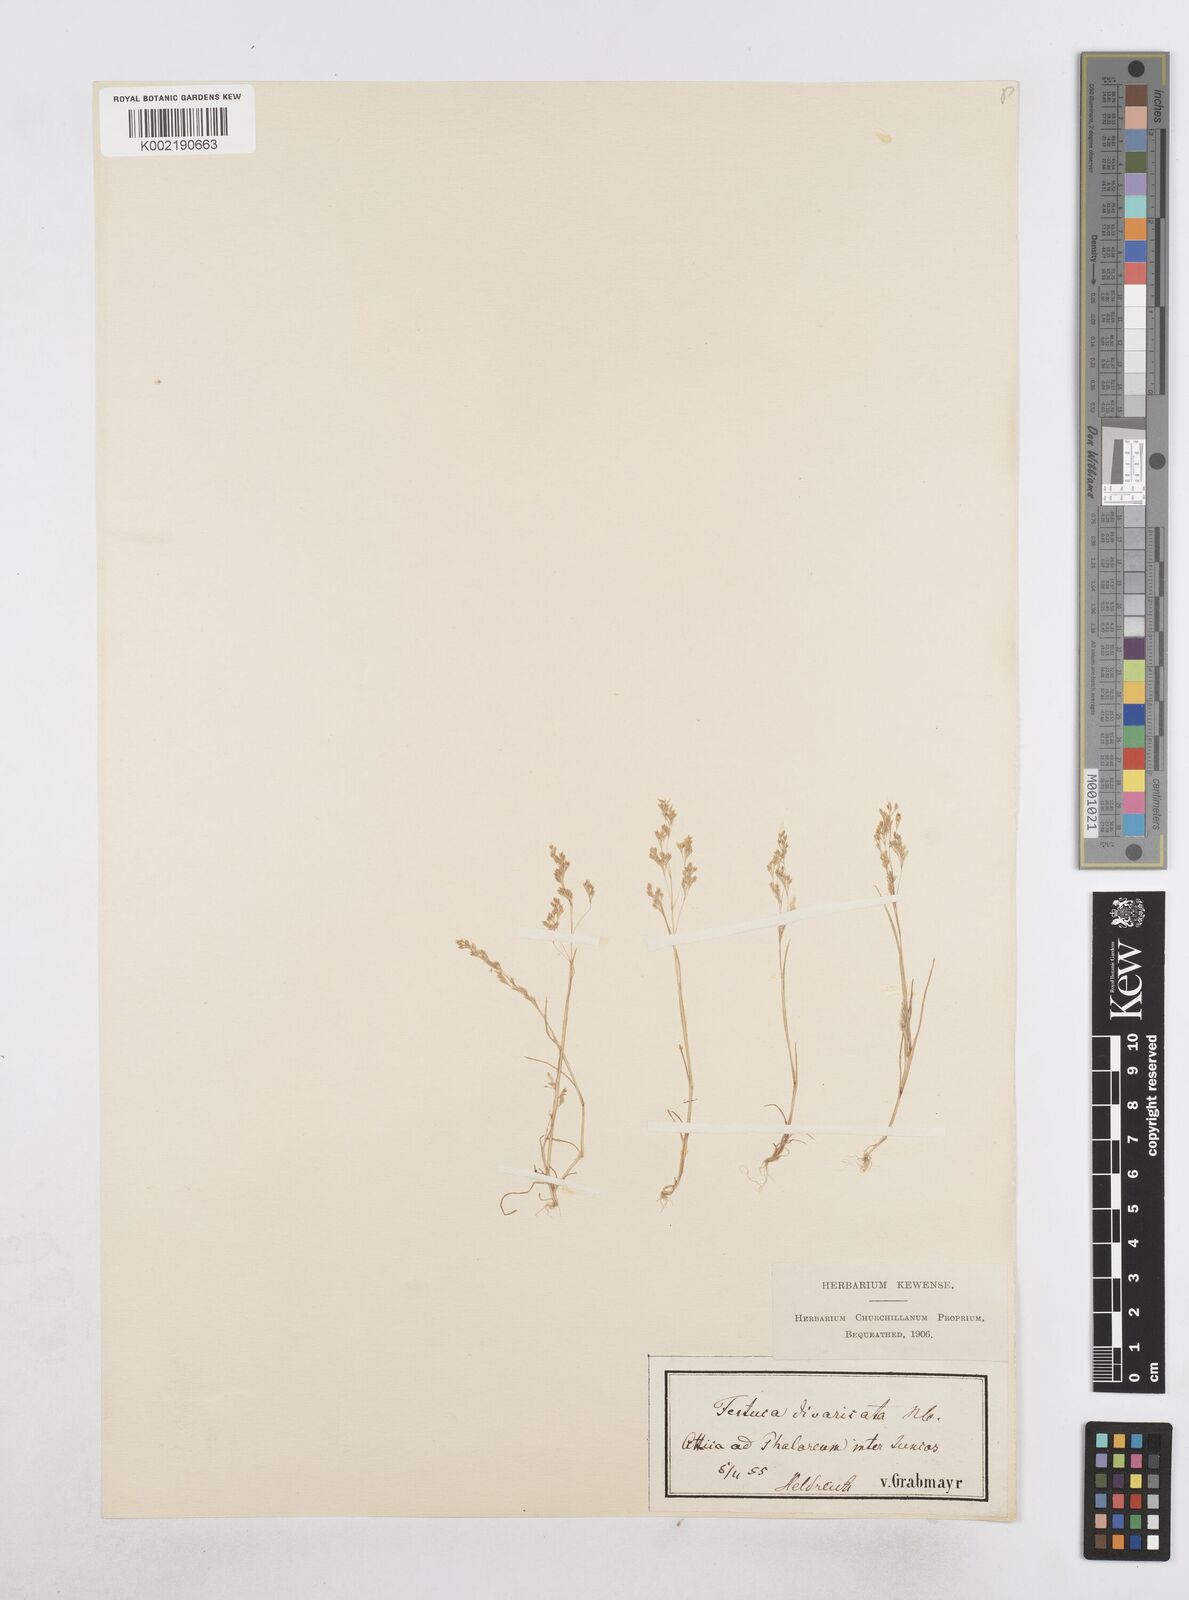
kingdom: Plantae
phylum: Tracheophyta
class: Liliopsida
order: Poales
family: Poaceae
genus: Sphenopus
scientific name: Sphenopus divaricatus
